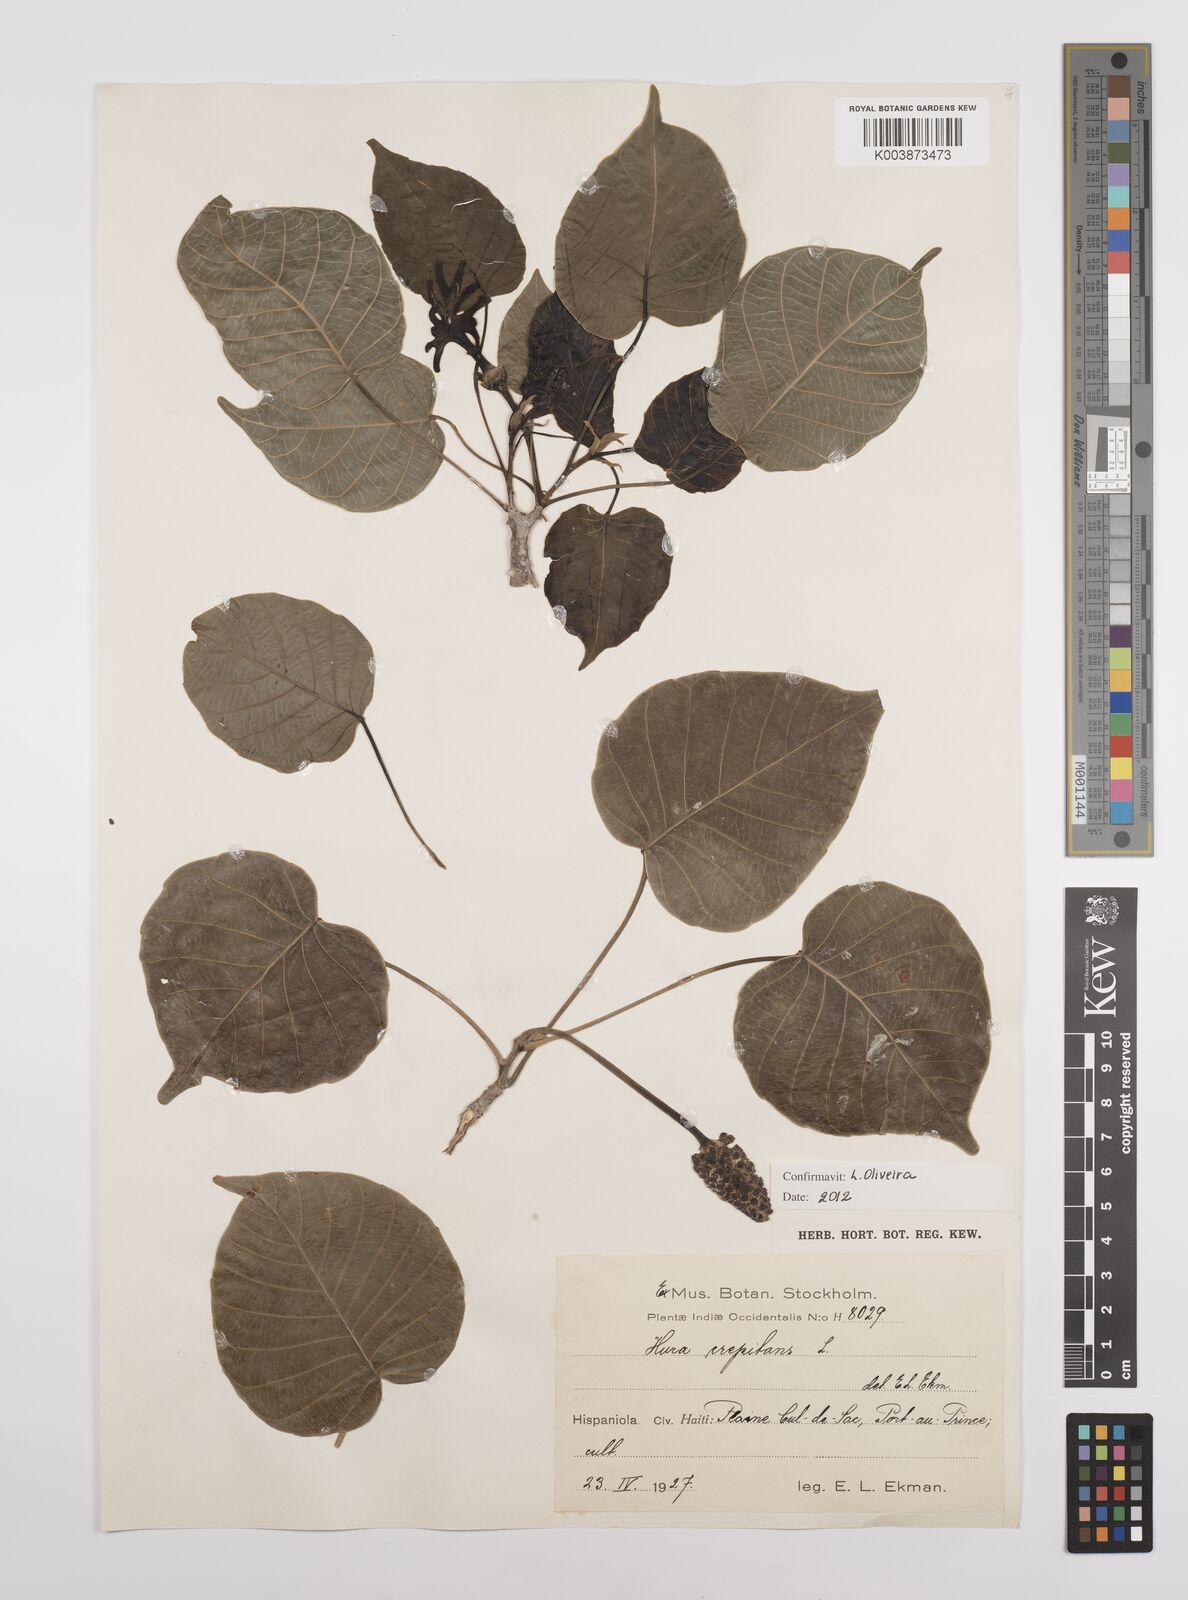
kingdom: Plantae
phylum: Tracheophyta
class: Magnoliopsida
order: Malpighiales
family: Euphorbiaceae
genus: Hura
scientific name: Hura crepitans
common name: Sandboxtree
